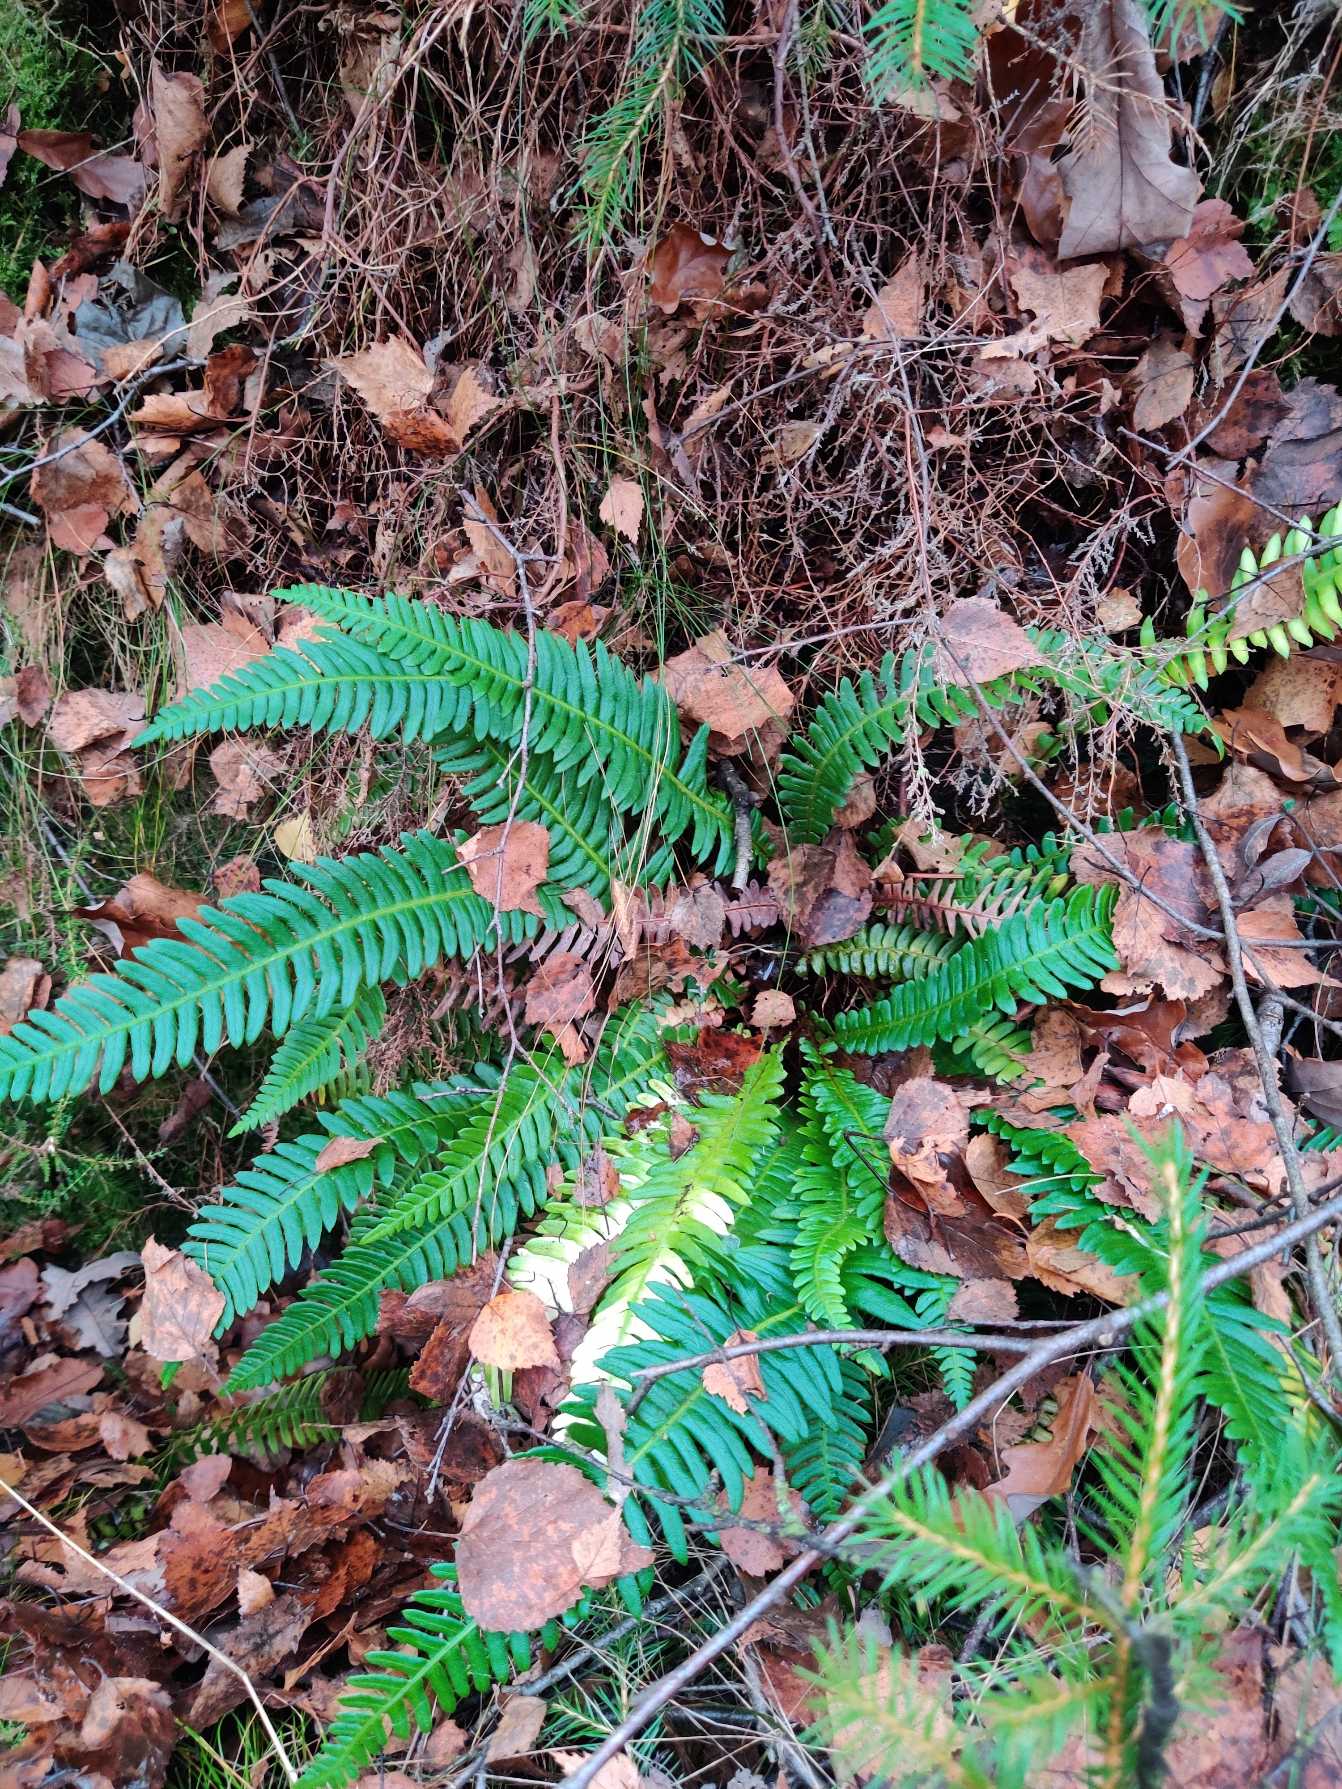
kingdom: Plantae
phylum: Tracheophyta
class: Polypodiopsida
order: Polypodiales
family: Blechnaceae
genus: Struthiopteris
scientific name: Struthiopteris spicant
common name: Kambregne
